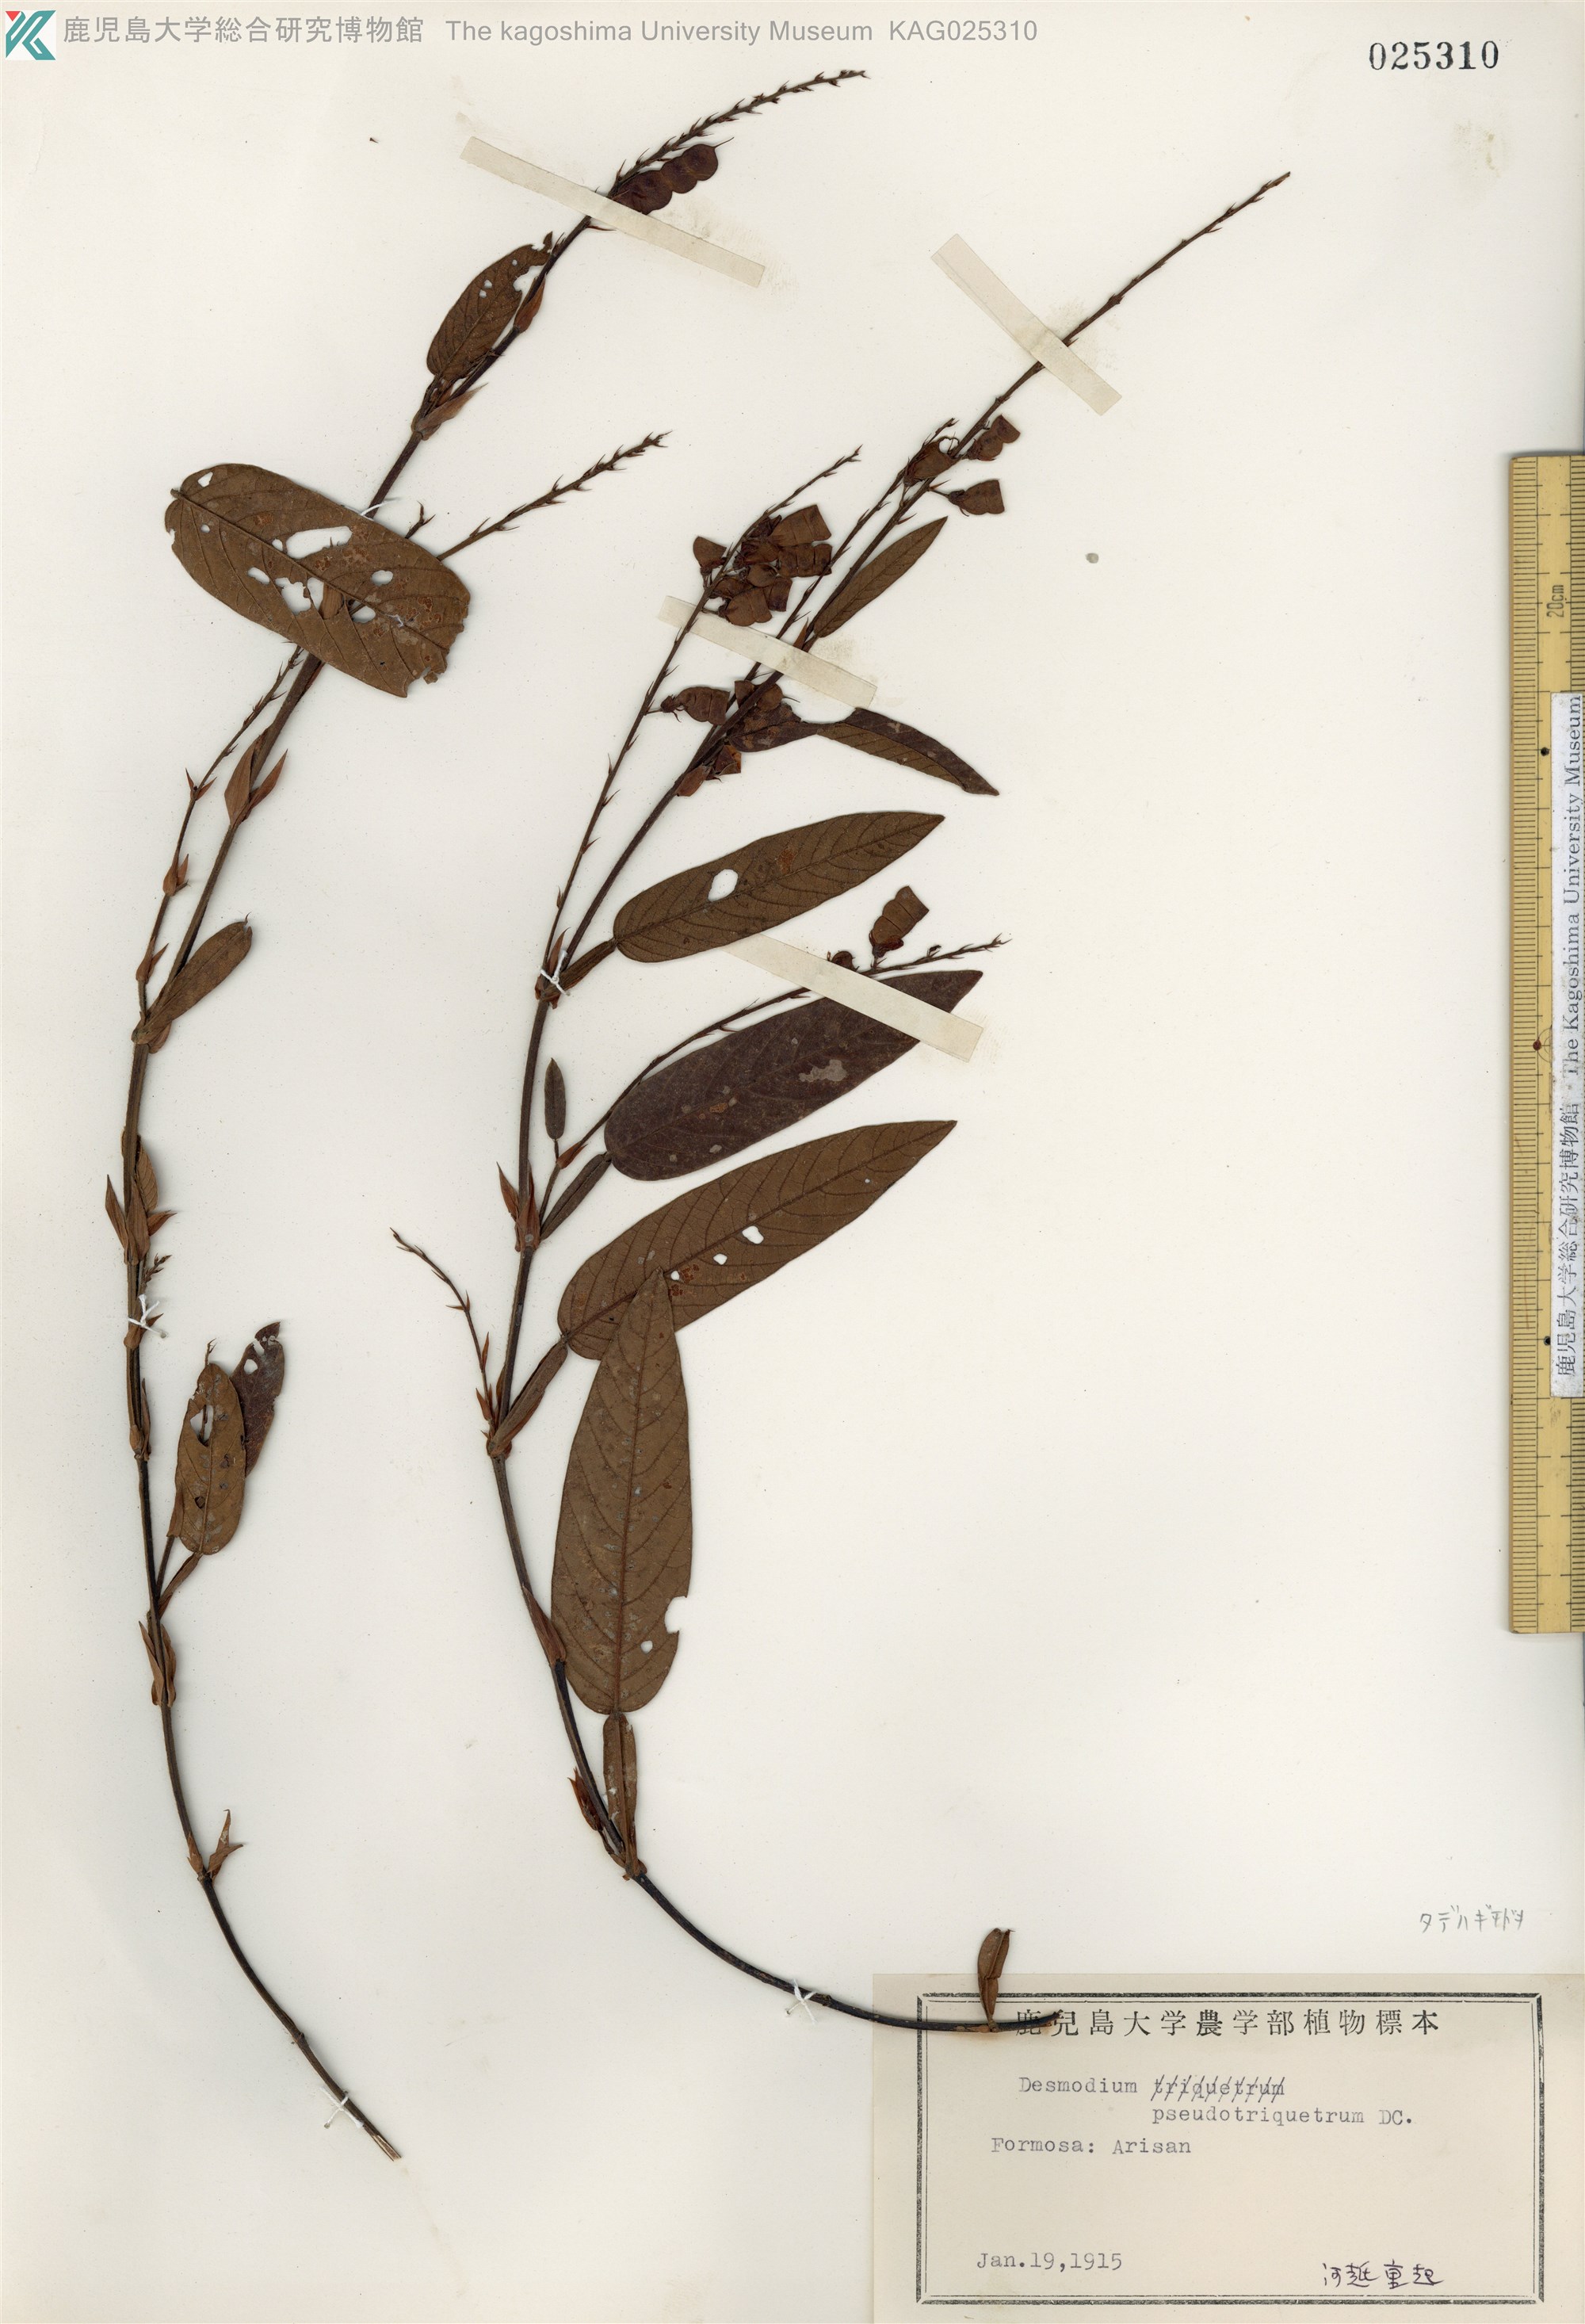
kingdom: Plantae
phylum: Tracheophyta
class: Magnoliopsida
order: Fabales
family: Fabaceae
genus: Tadehagi
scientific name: Tadehagi pseudotriquetrum
